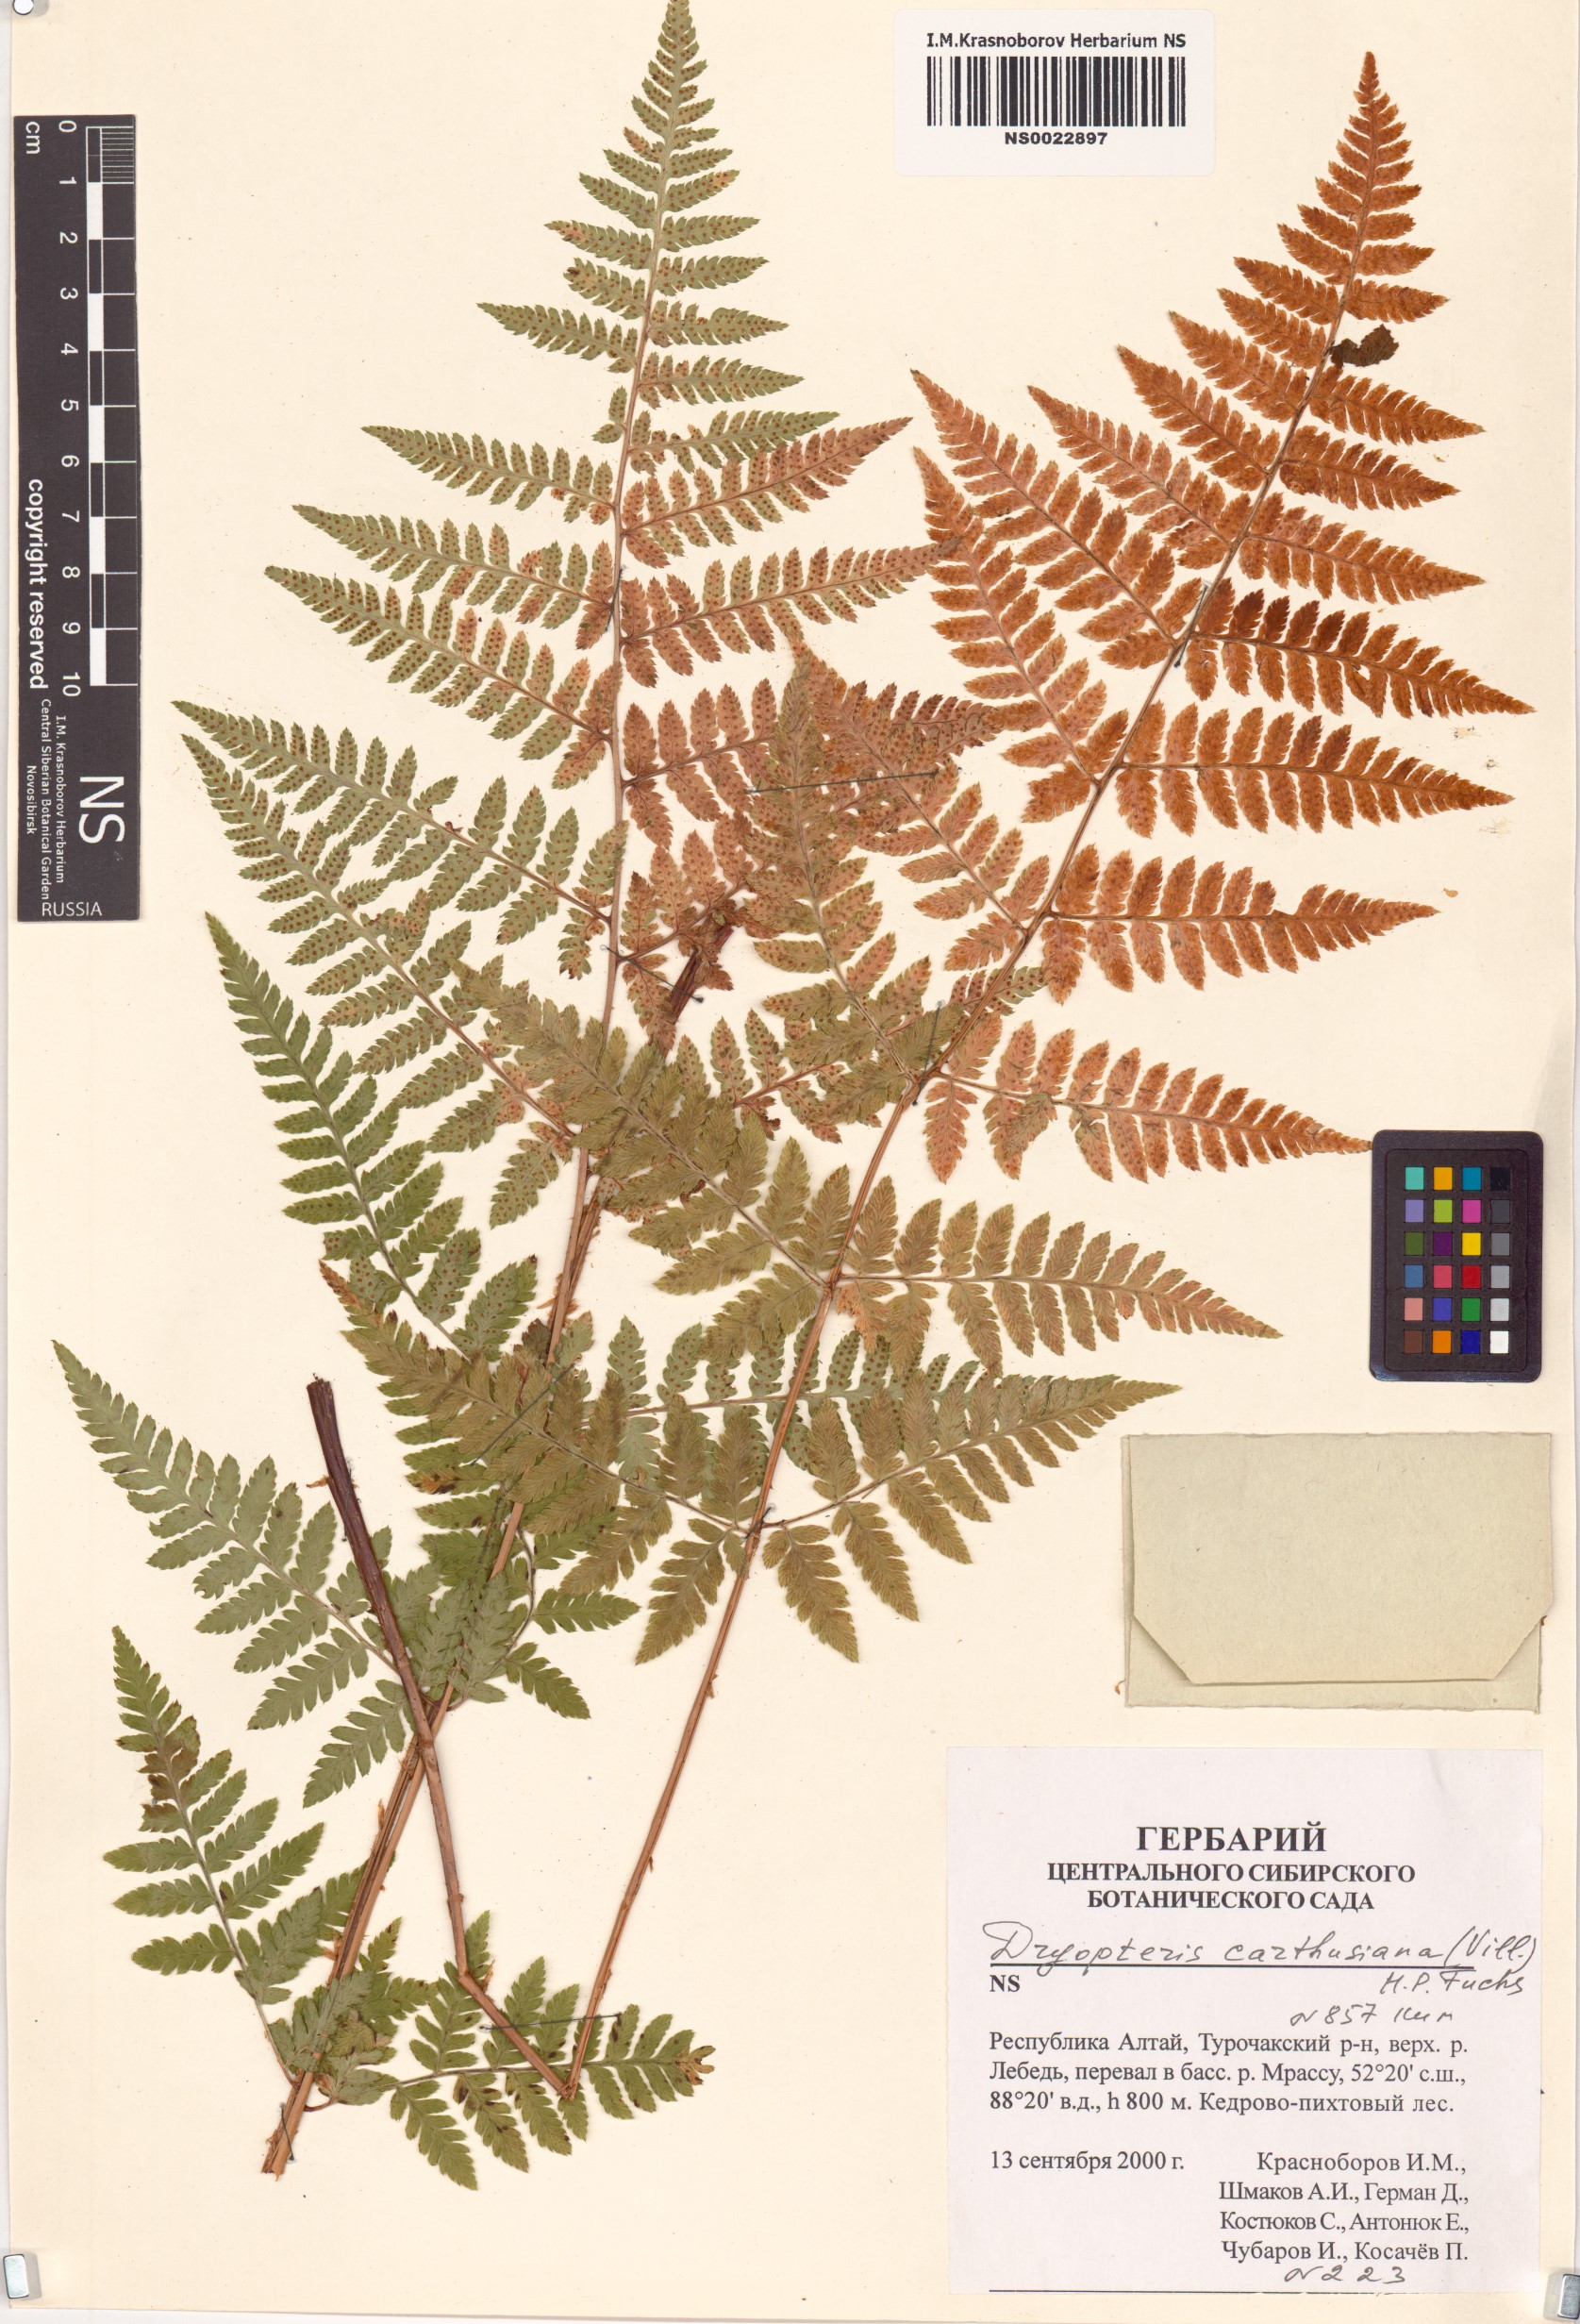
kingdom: Plantae
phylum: Tracheophyta
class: Polypodiopsida
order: Polypodiales
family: Dryopteridaceae
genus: Dryopteris
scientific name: Dryopteris carthusiana
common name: Narrow buckler-fern
